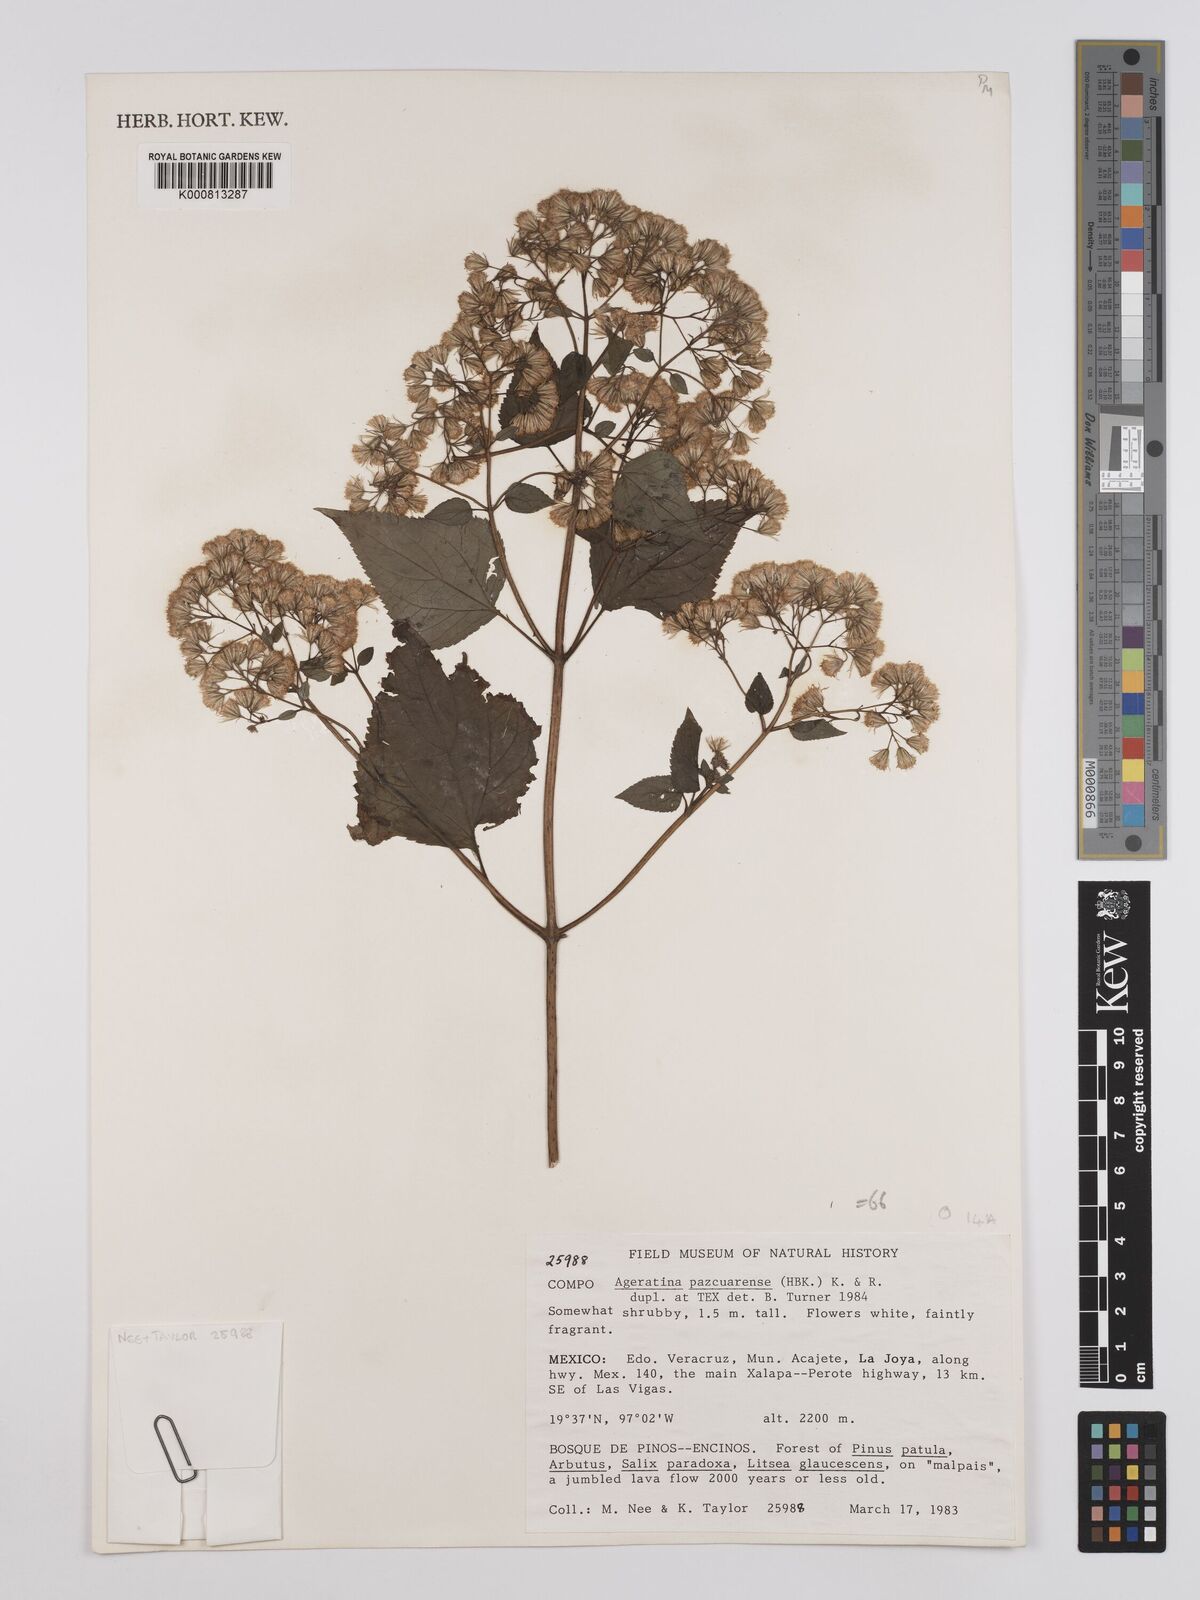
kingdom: Plantae
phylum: Tracheophyta
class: Magnoliopsida
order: Asterales
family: Asteraceae
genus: Ageratina
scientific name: Ageratina pazcuarensis
